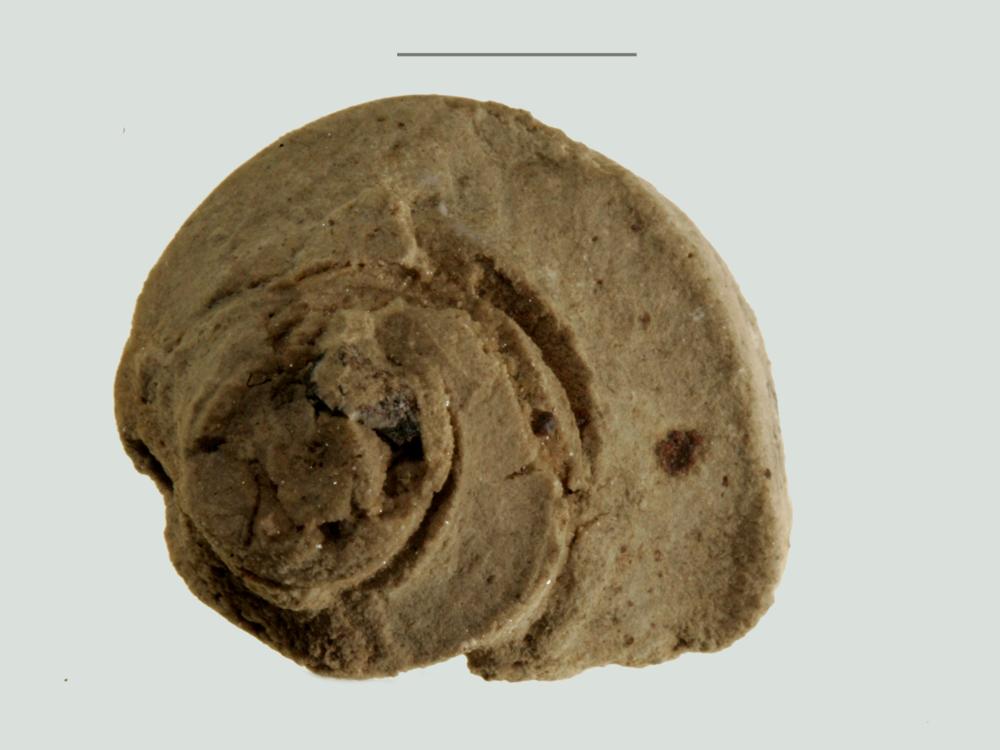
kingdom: Animalia
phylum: Mollusca
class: Gastropoda
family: Lophospiridae
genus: Ruedemannia
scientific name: Ruedemannia Worthenia borkholmiensis
